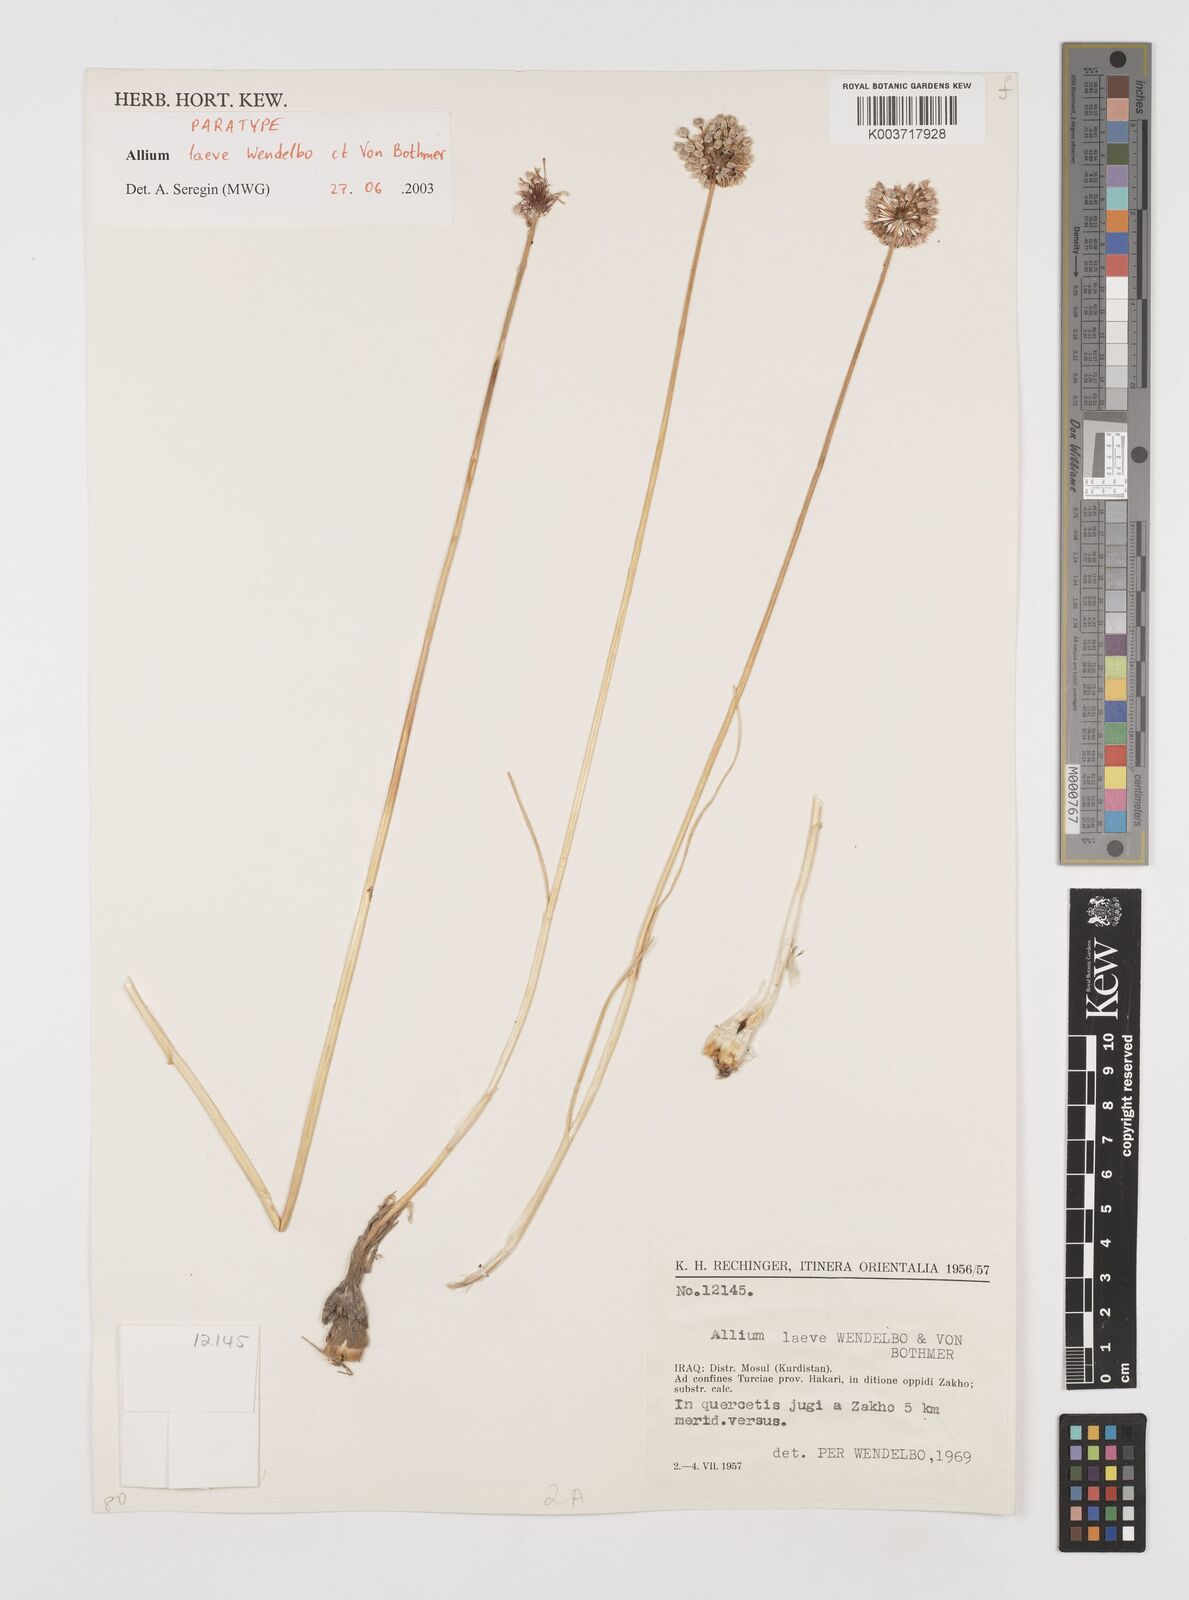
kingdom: Plantae
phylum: Tracheophyta
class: Liliopsida
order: Asparagales
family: Amaryllidaceae
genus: Allium
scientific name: Allium macrochaetum
